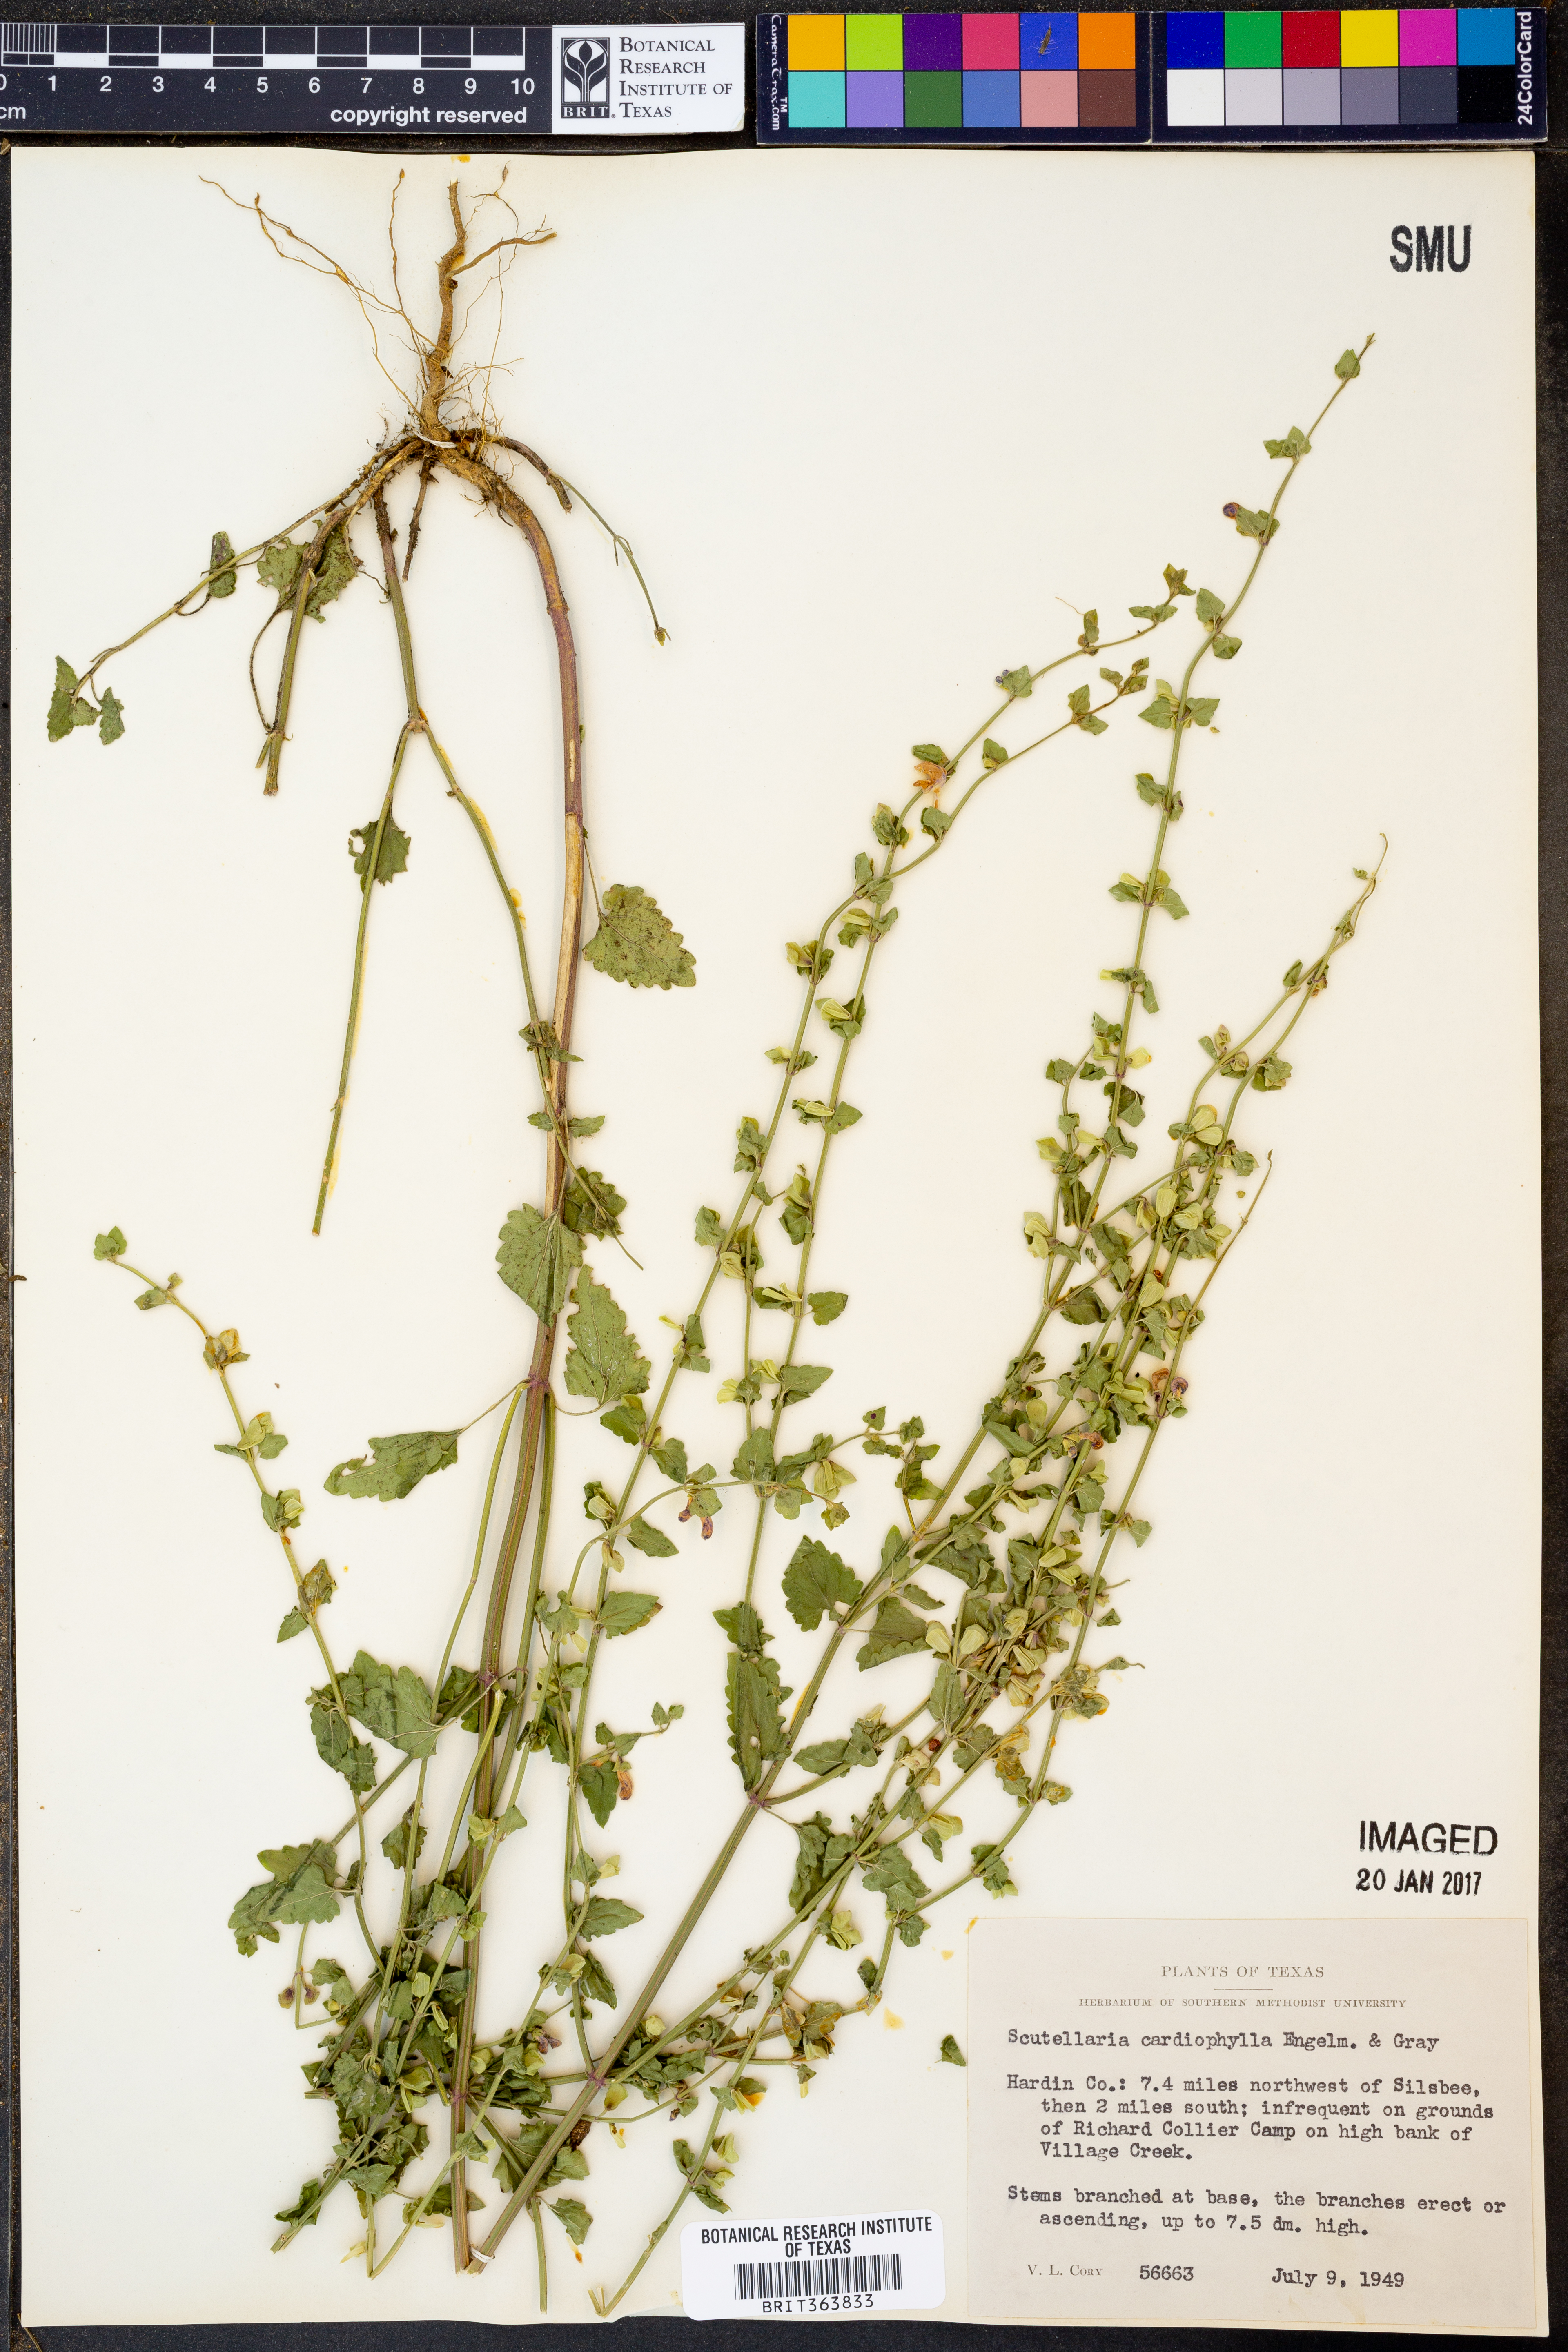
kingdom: Plantae
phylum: Tracheophyta
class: Magnoliopsida
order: Lamiales
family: Lamiaceae
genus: Scutellaria
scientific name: Scutellaria cardiophylla
